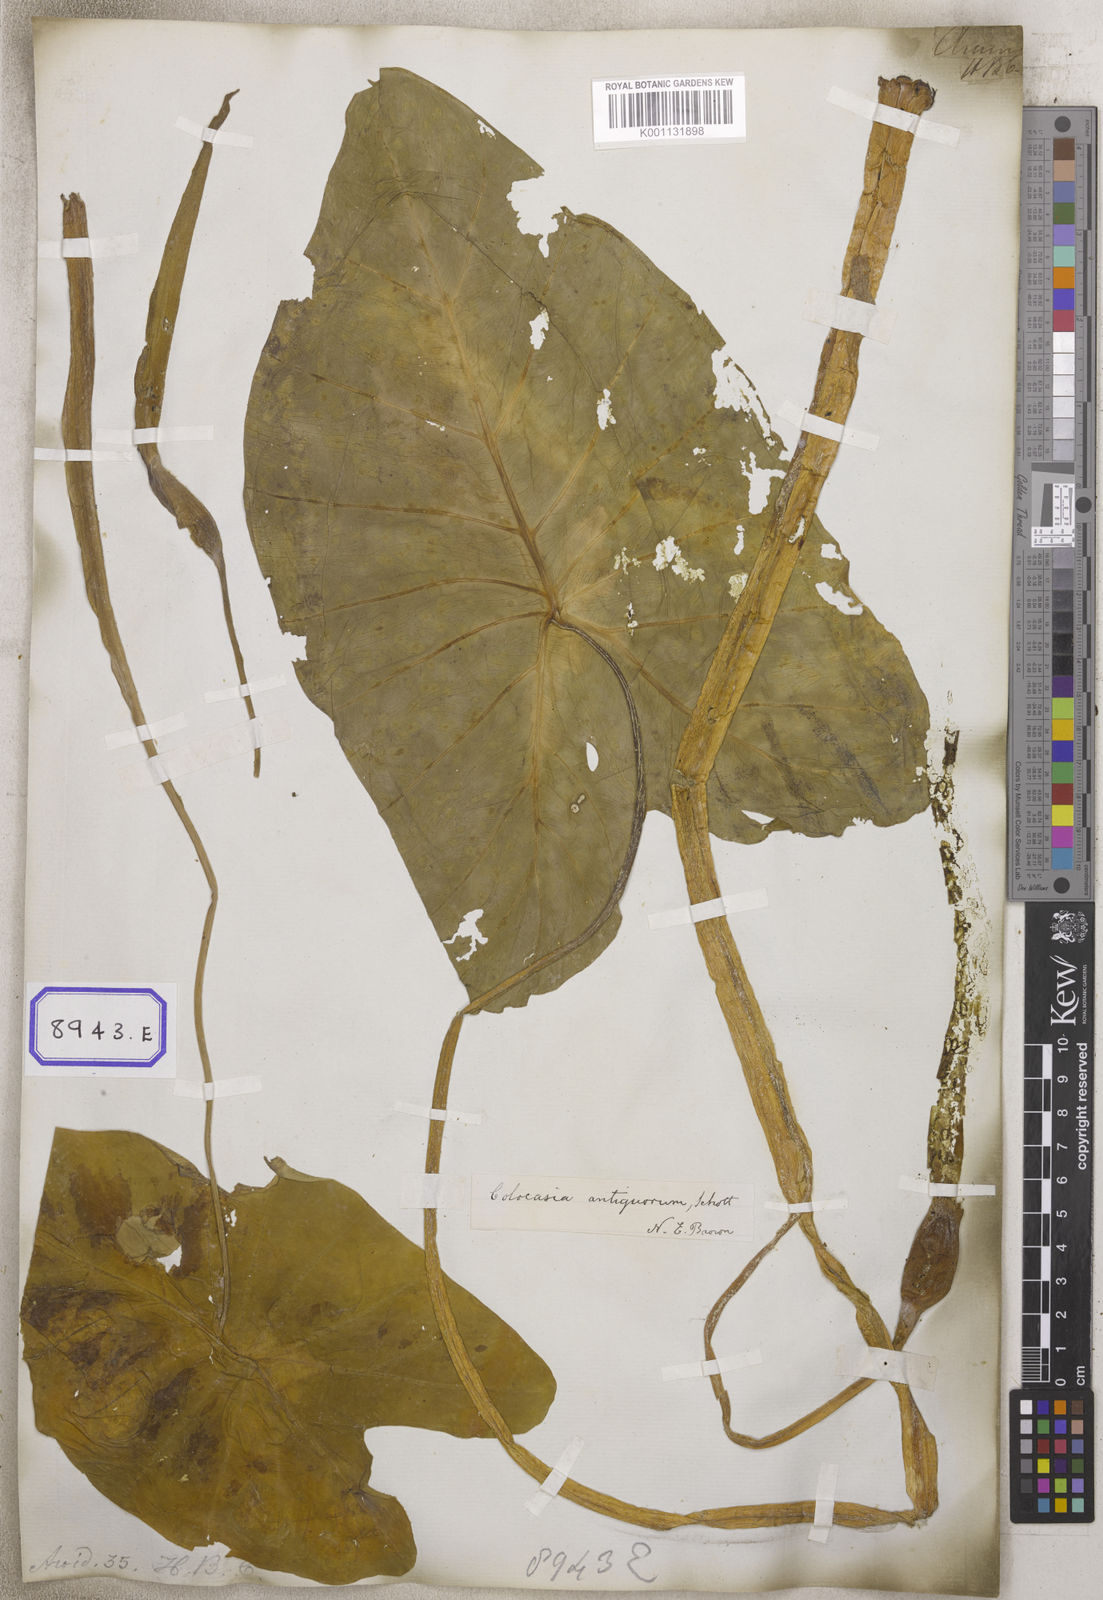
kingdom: Plantae
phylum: Tracheophyta
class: Liliopsida
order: Alismatales
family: Araceae
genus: Colocasia
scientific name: Colocasia spec
